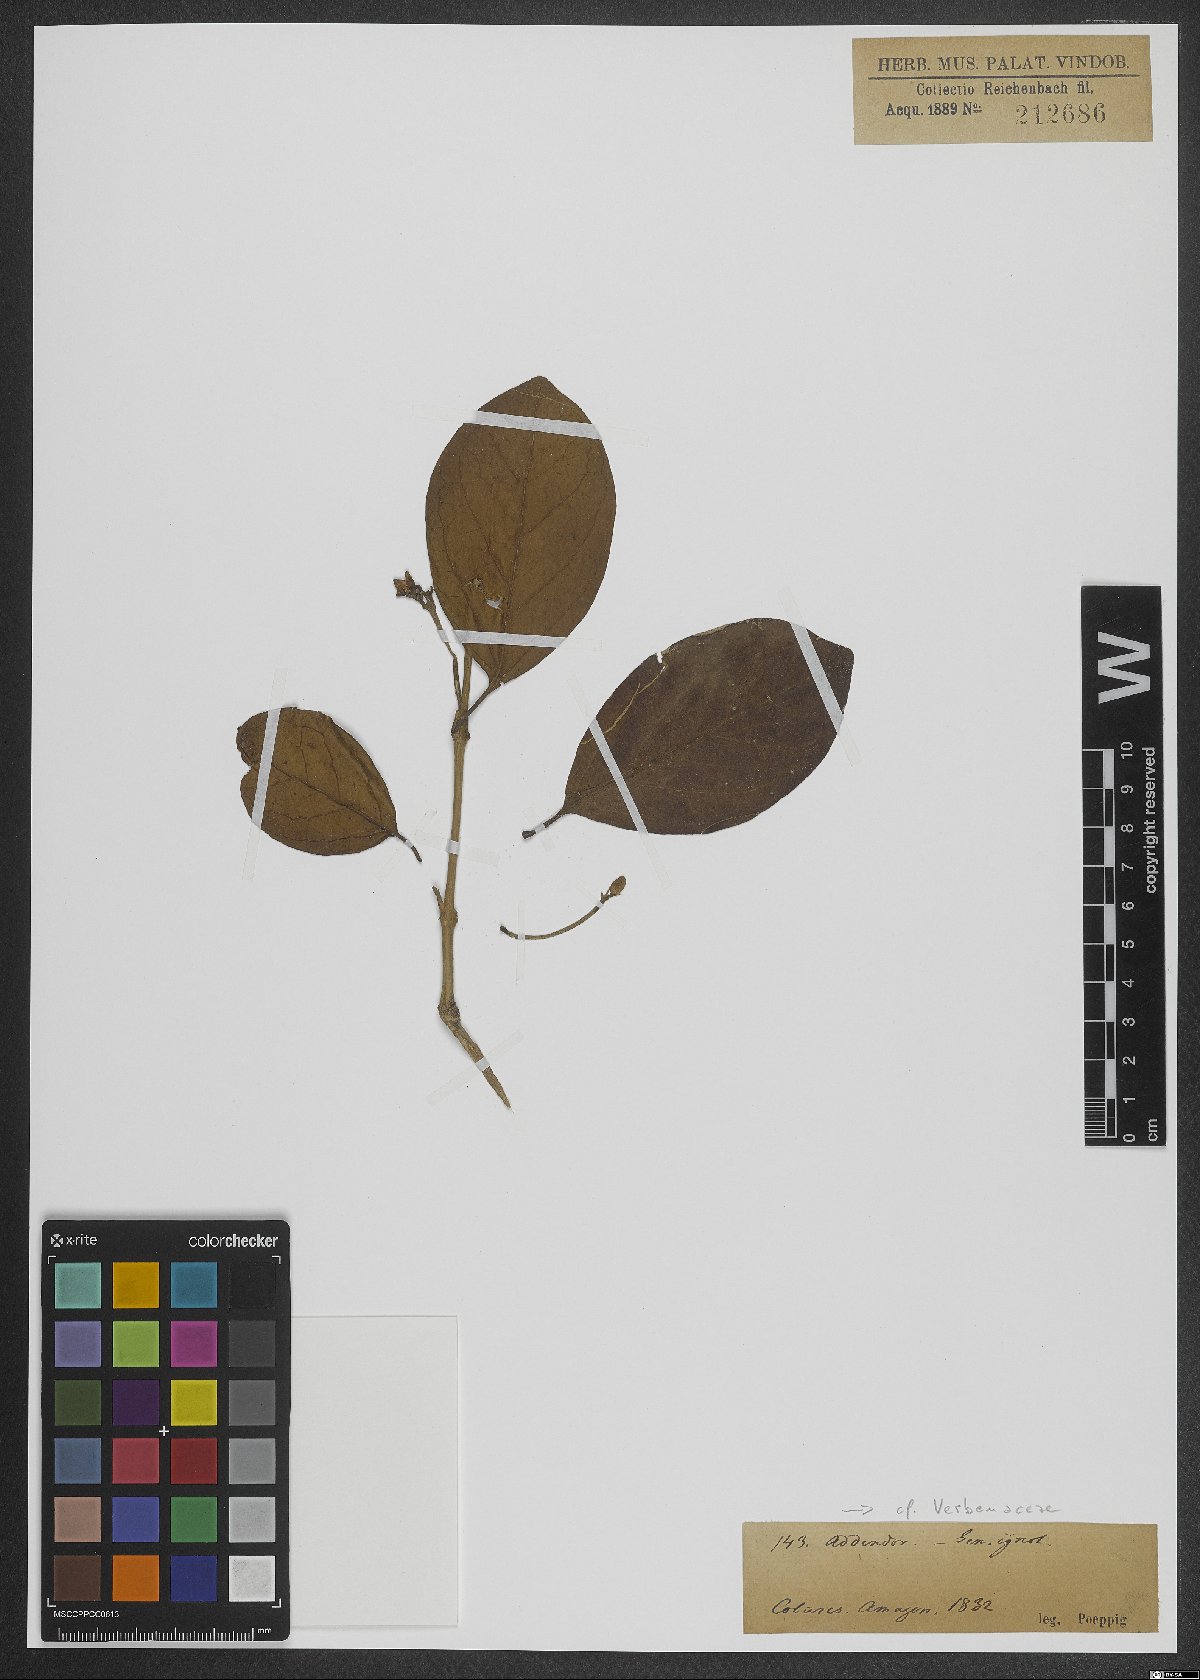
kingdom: Plantae
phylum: Tracheophyta
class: Magnoliopsida
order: Lamiales
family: Verbenaceae
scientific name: Verbenaceae
